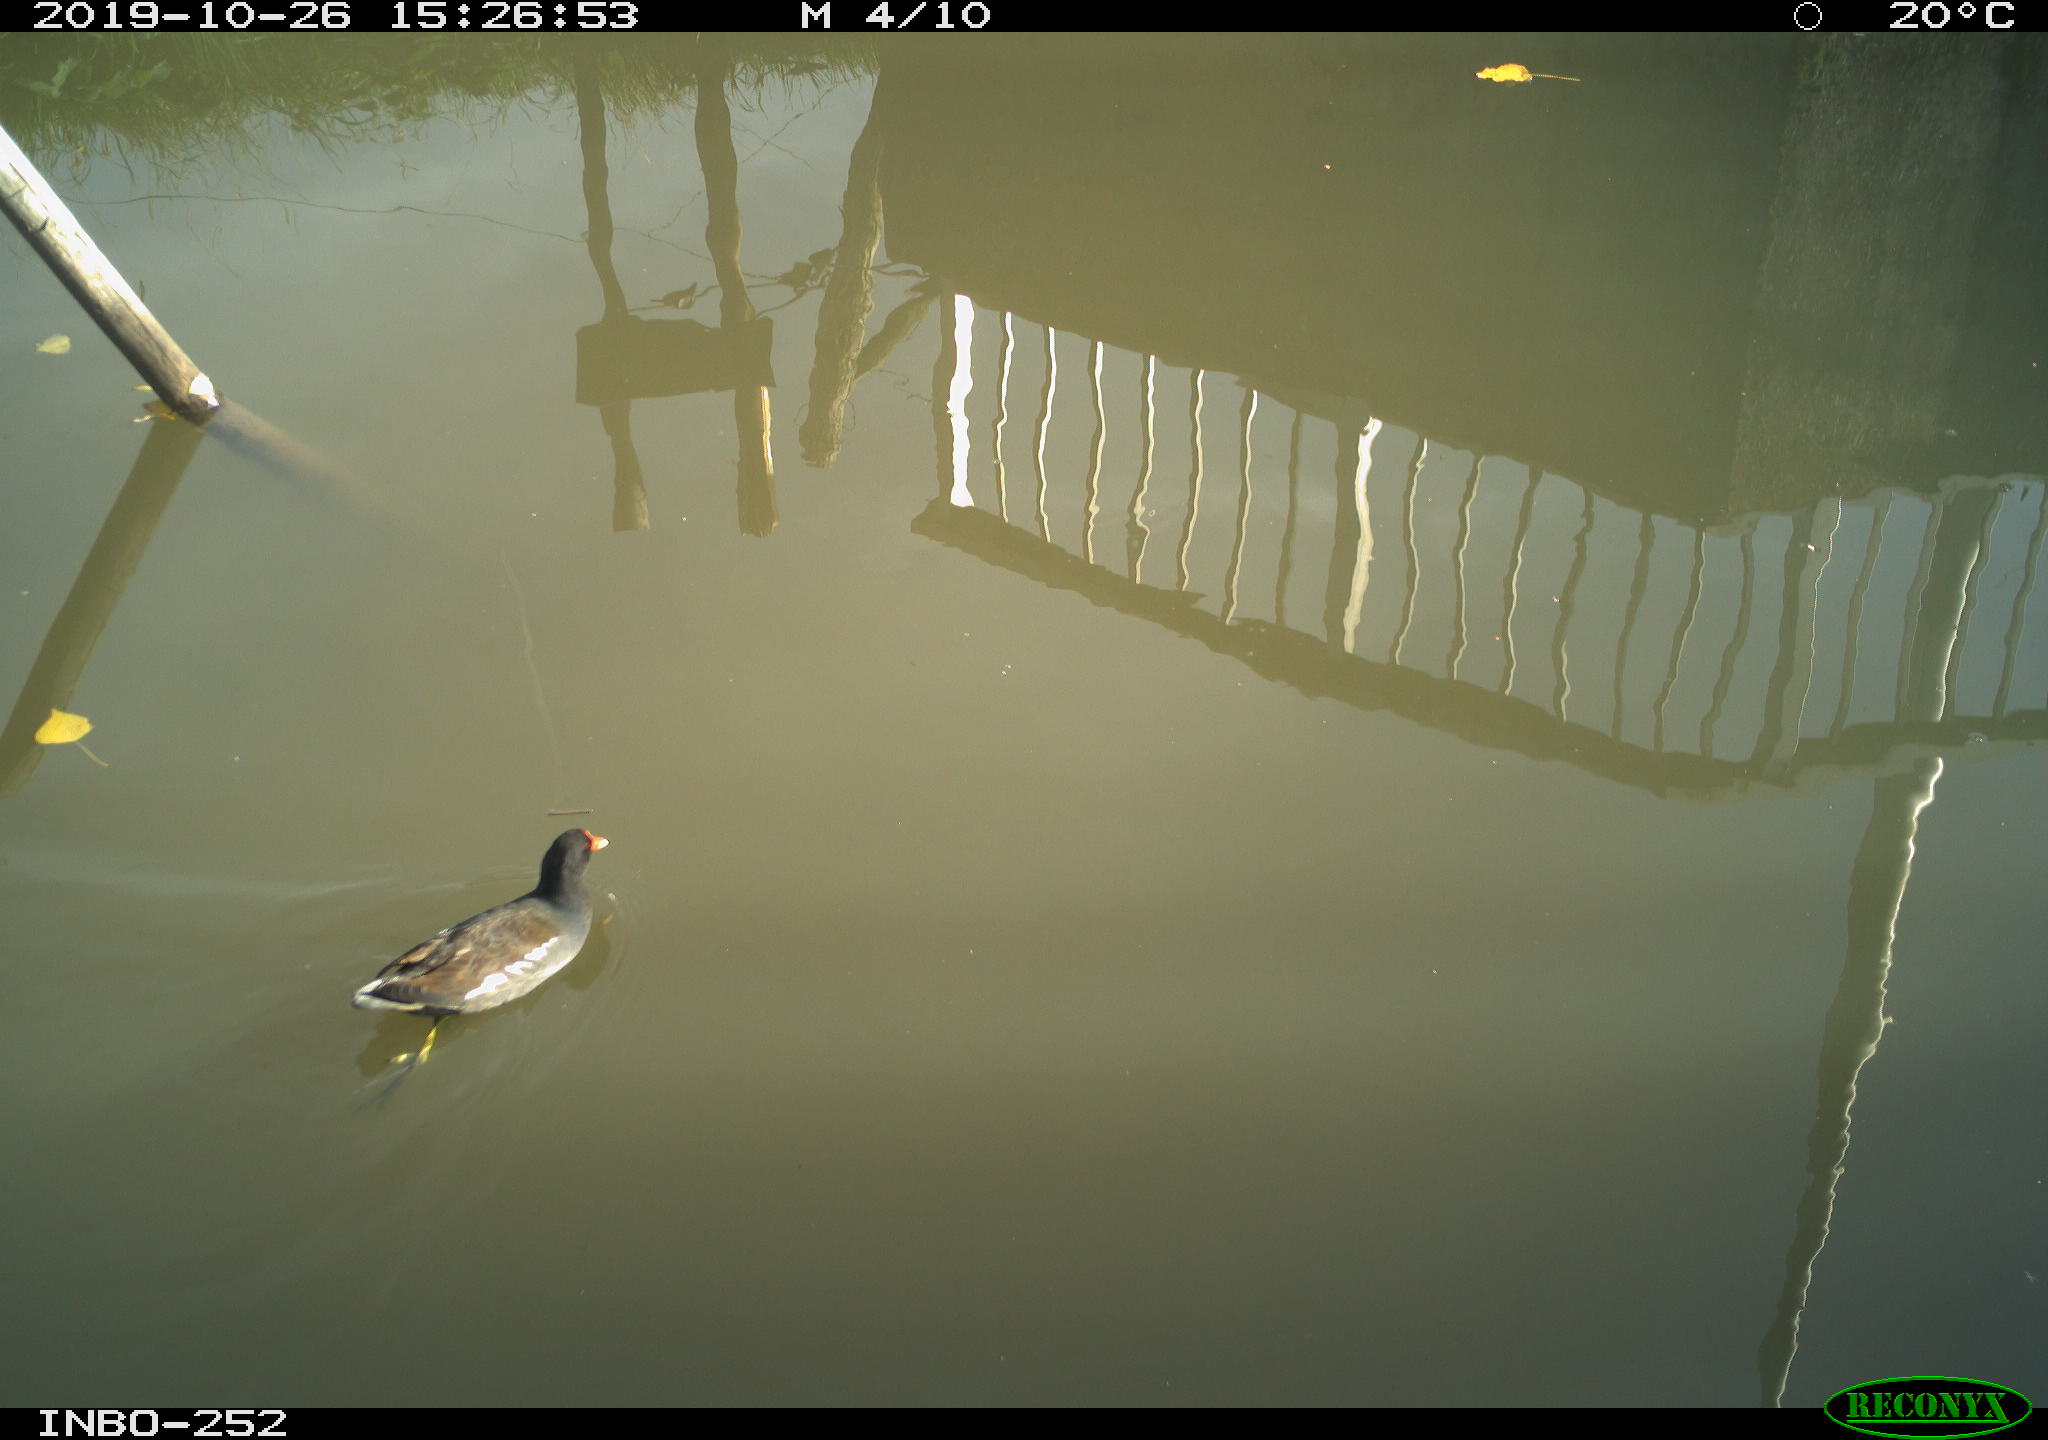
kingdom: Animalia
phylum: Chordata
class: Aves
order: Gruiformes
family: Rallidae
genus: Gallinula
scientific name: Gallinula chloropus
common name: Common moorhen
